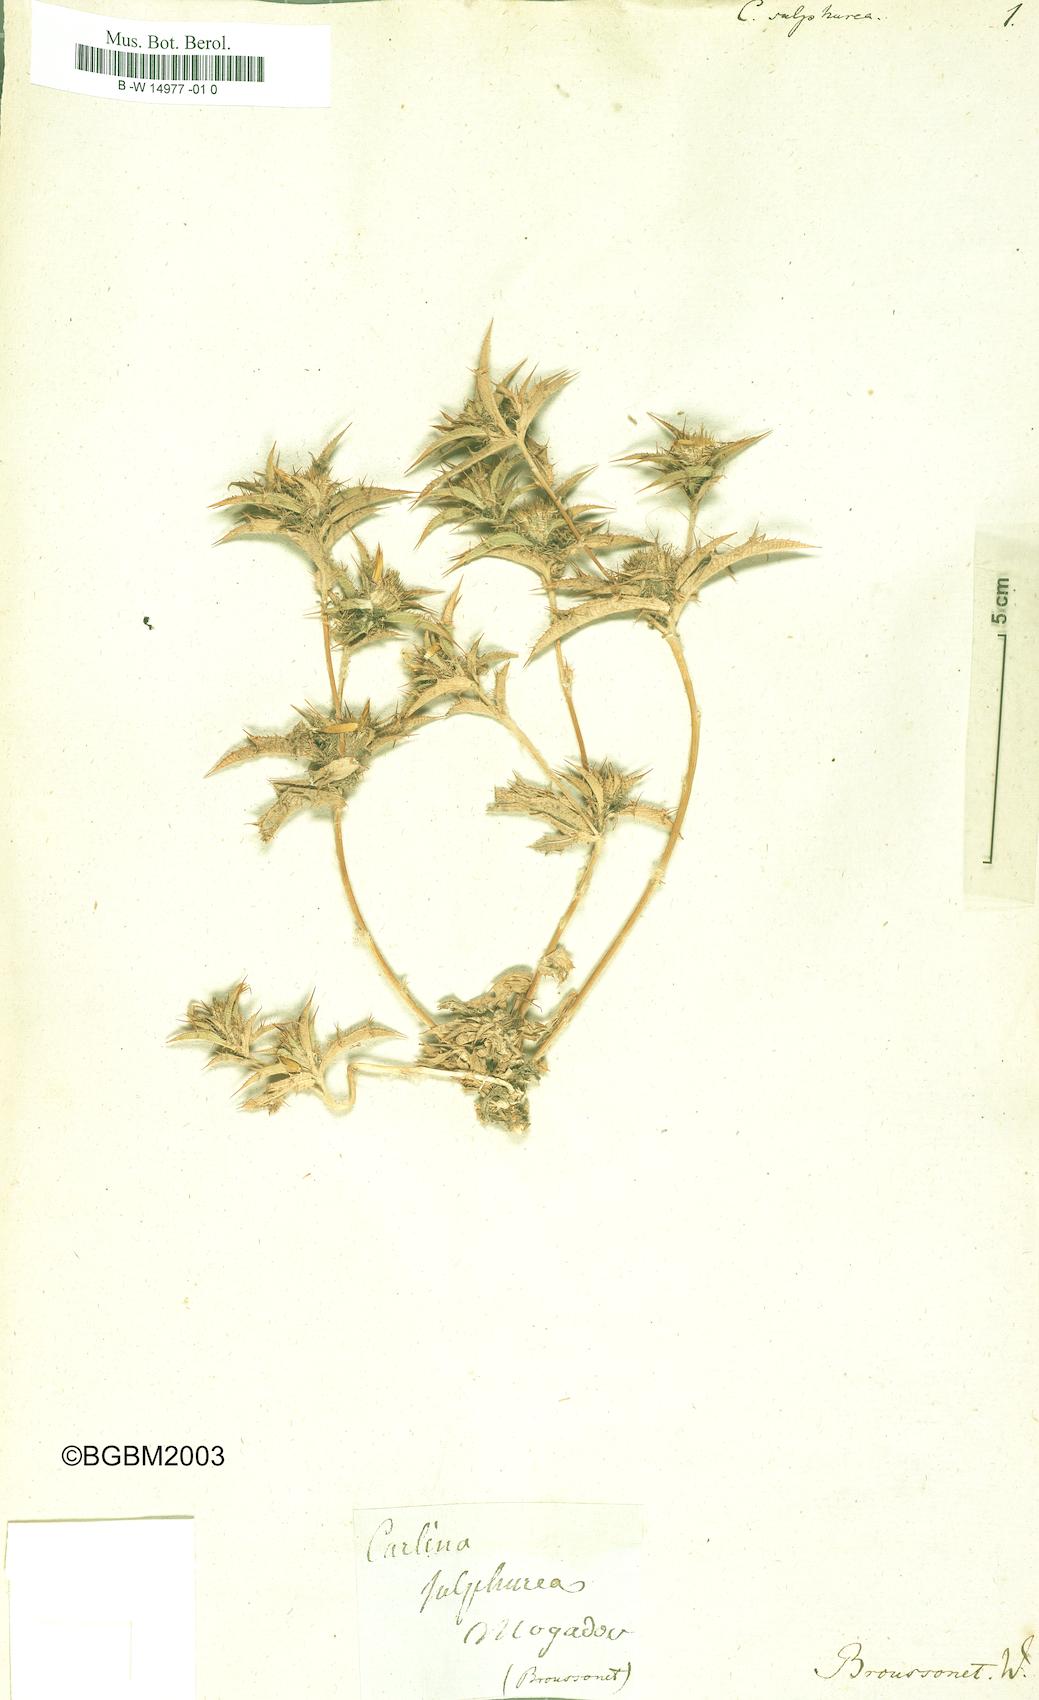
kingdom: Plantae
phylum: Tracheophyta
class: Magnoliopsida
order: Asterales
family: Asteraceae
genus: Carlina
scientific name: Carlina racemosa
